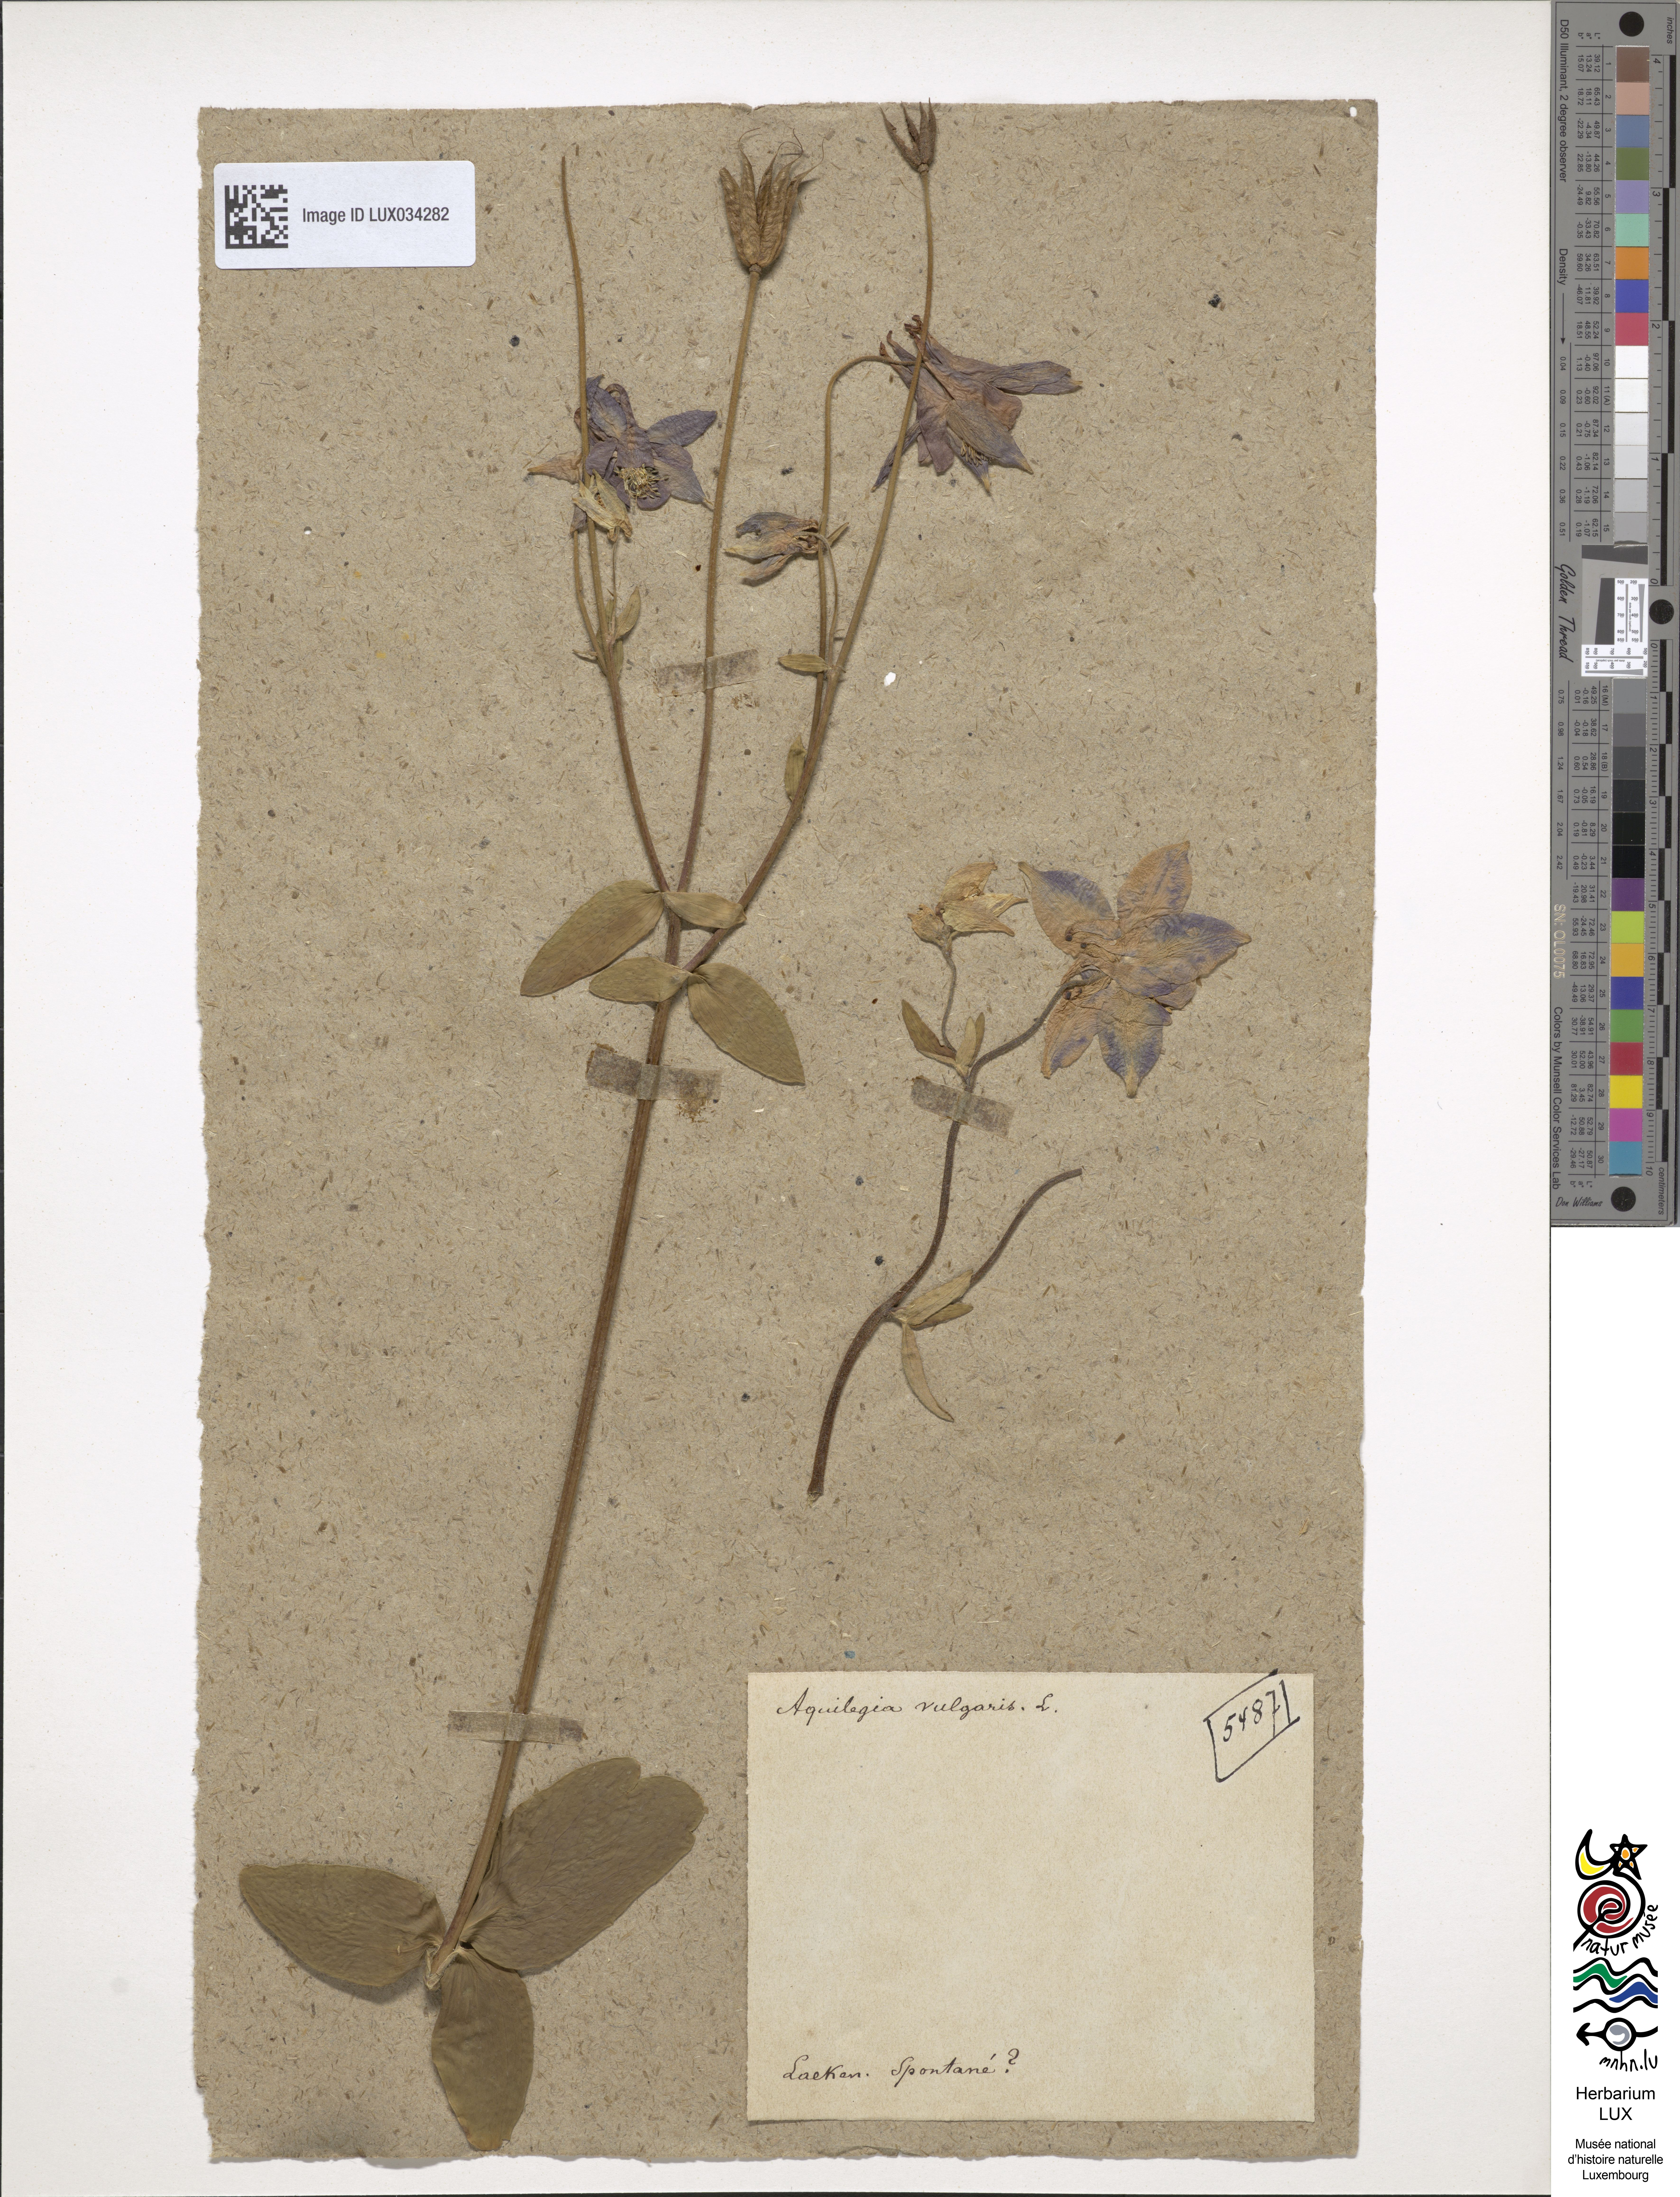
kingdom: Plantae
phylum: Tracheophyta
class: Magnoliopsida
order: Ranunculales
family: Ranunculaceae
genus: Aquilegia
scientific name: Aquilegia vulgaris
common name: Columbine
